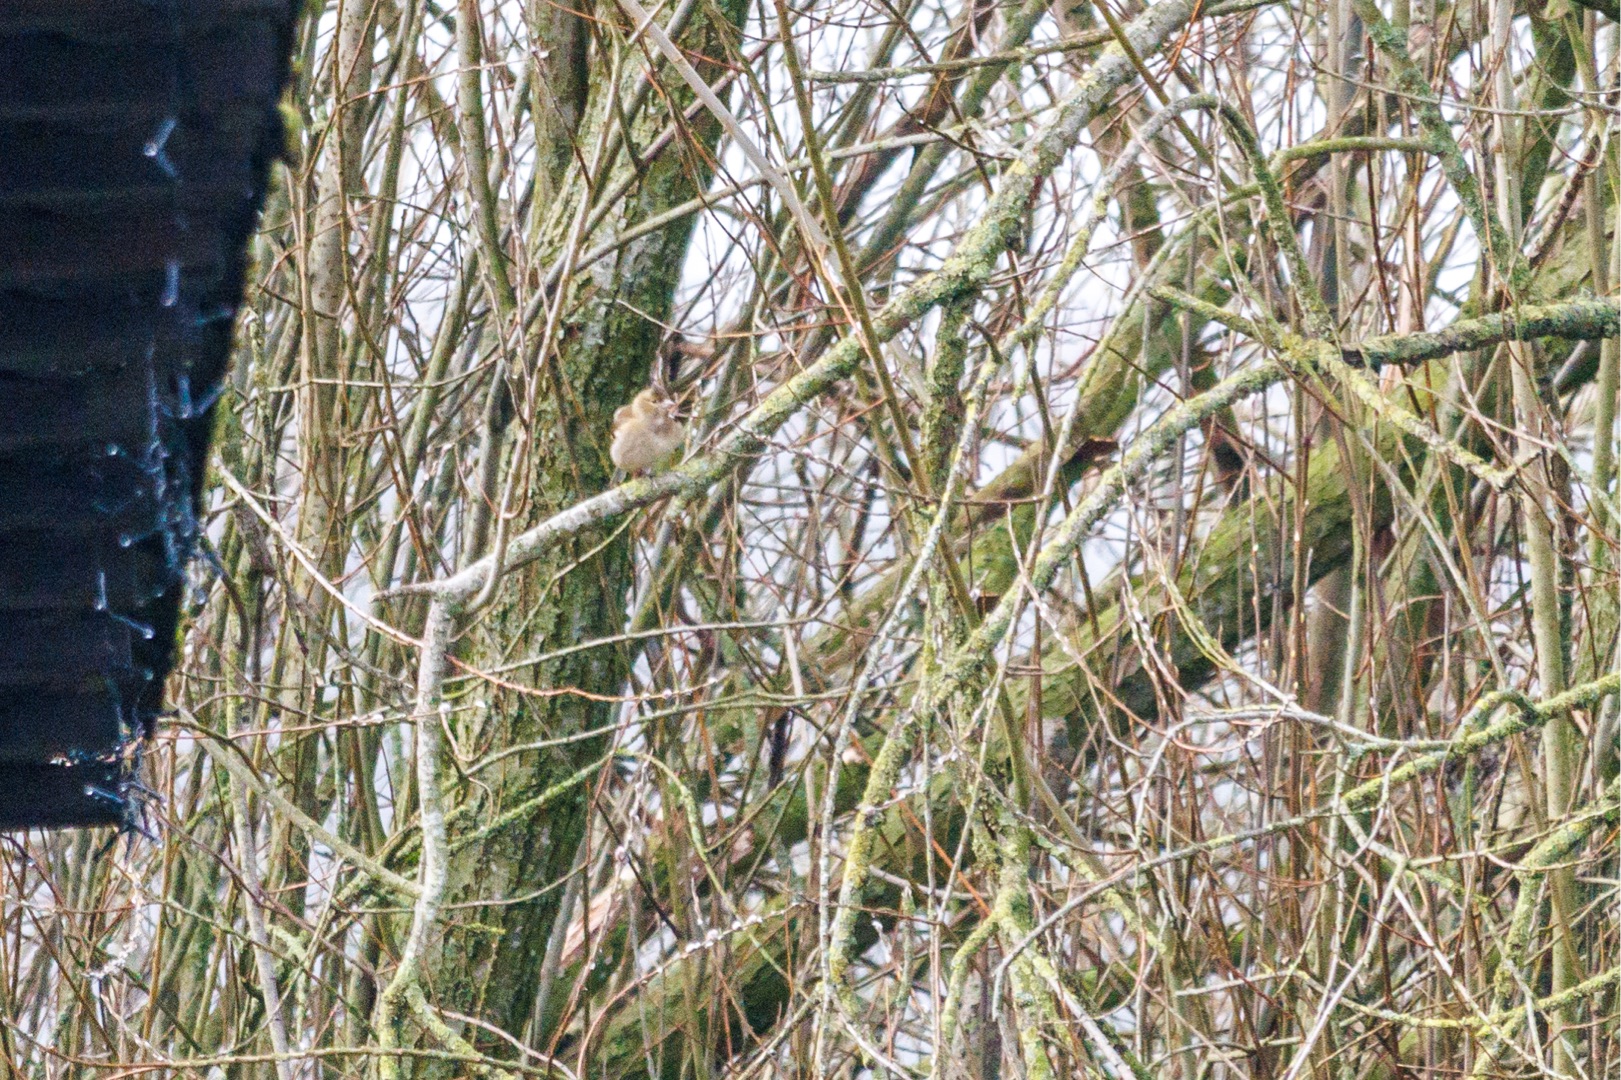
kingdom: Animalia
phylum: Chordata
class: Aves
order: Passeriformes
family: Fringillidae
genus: Fringilla
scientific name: Fringilla coelebs
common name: Bogfinke
